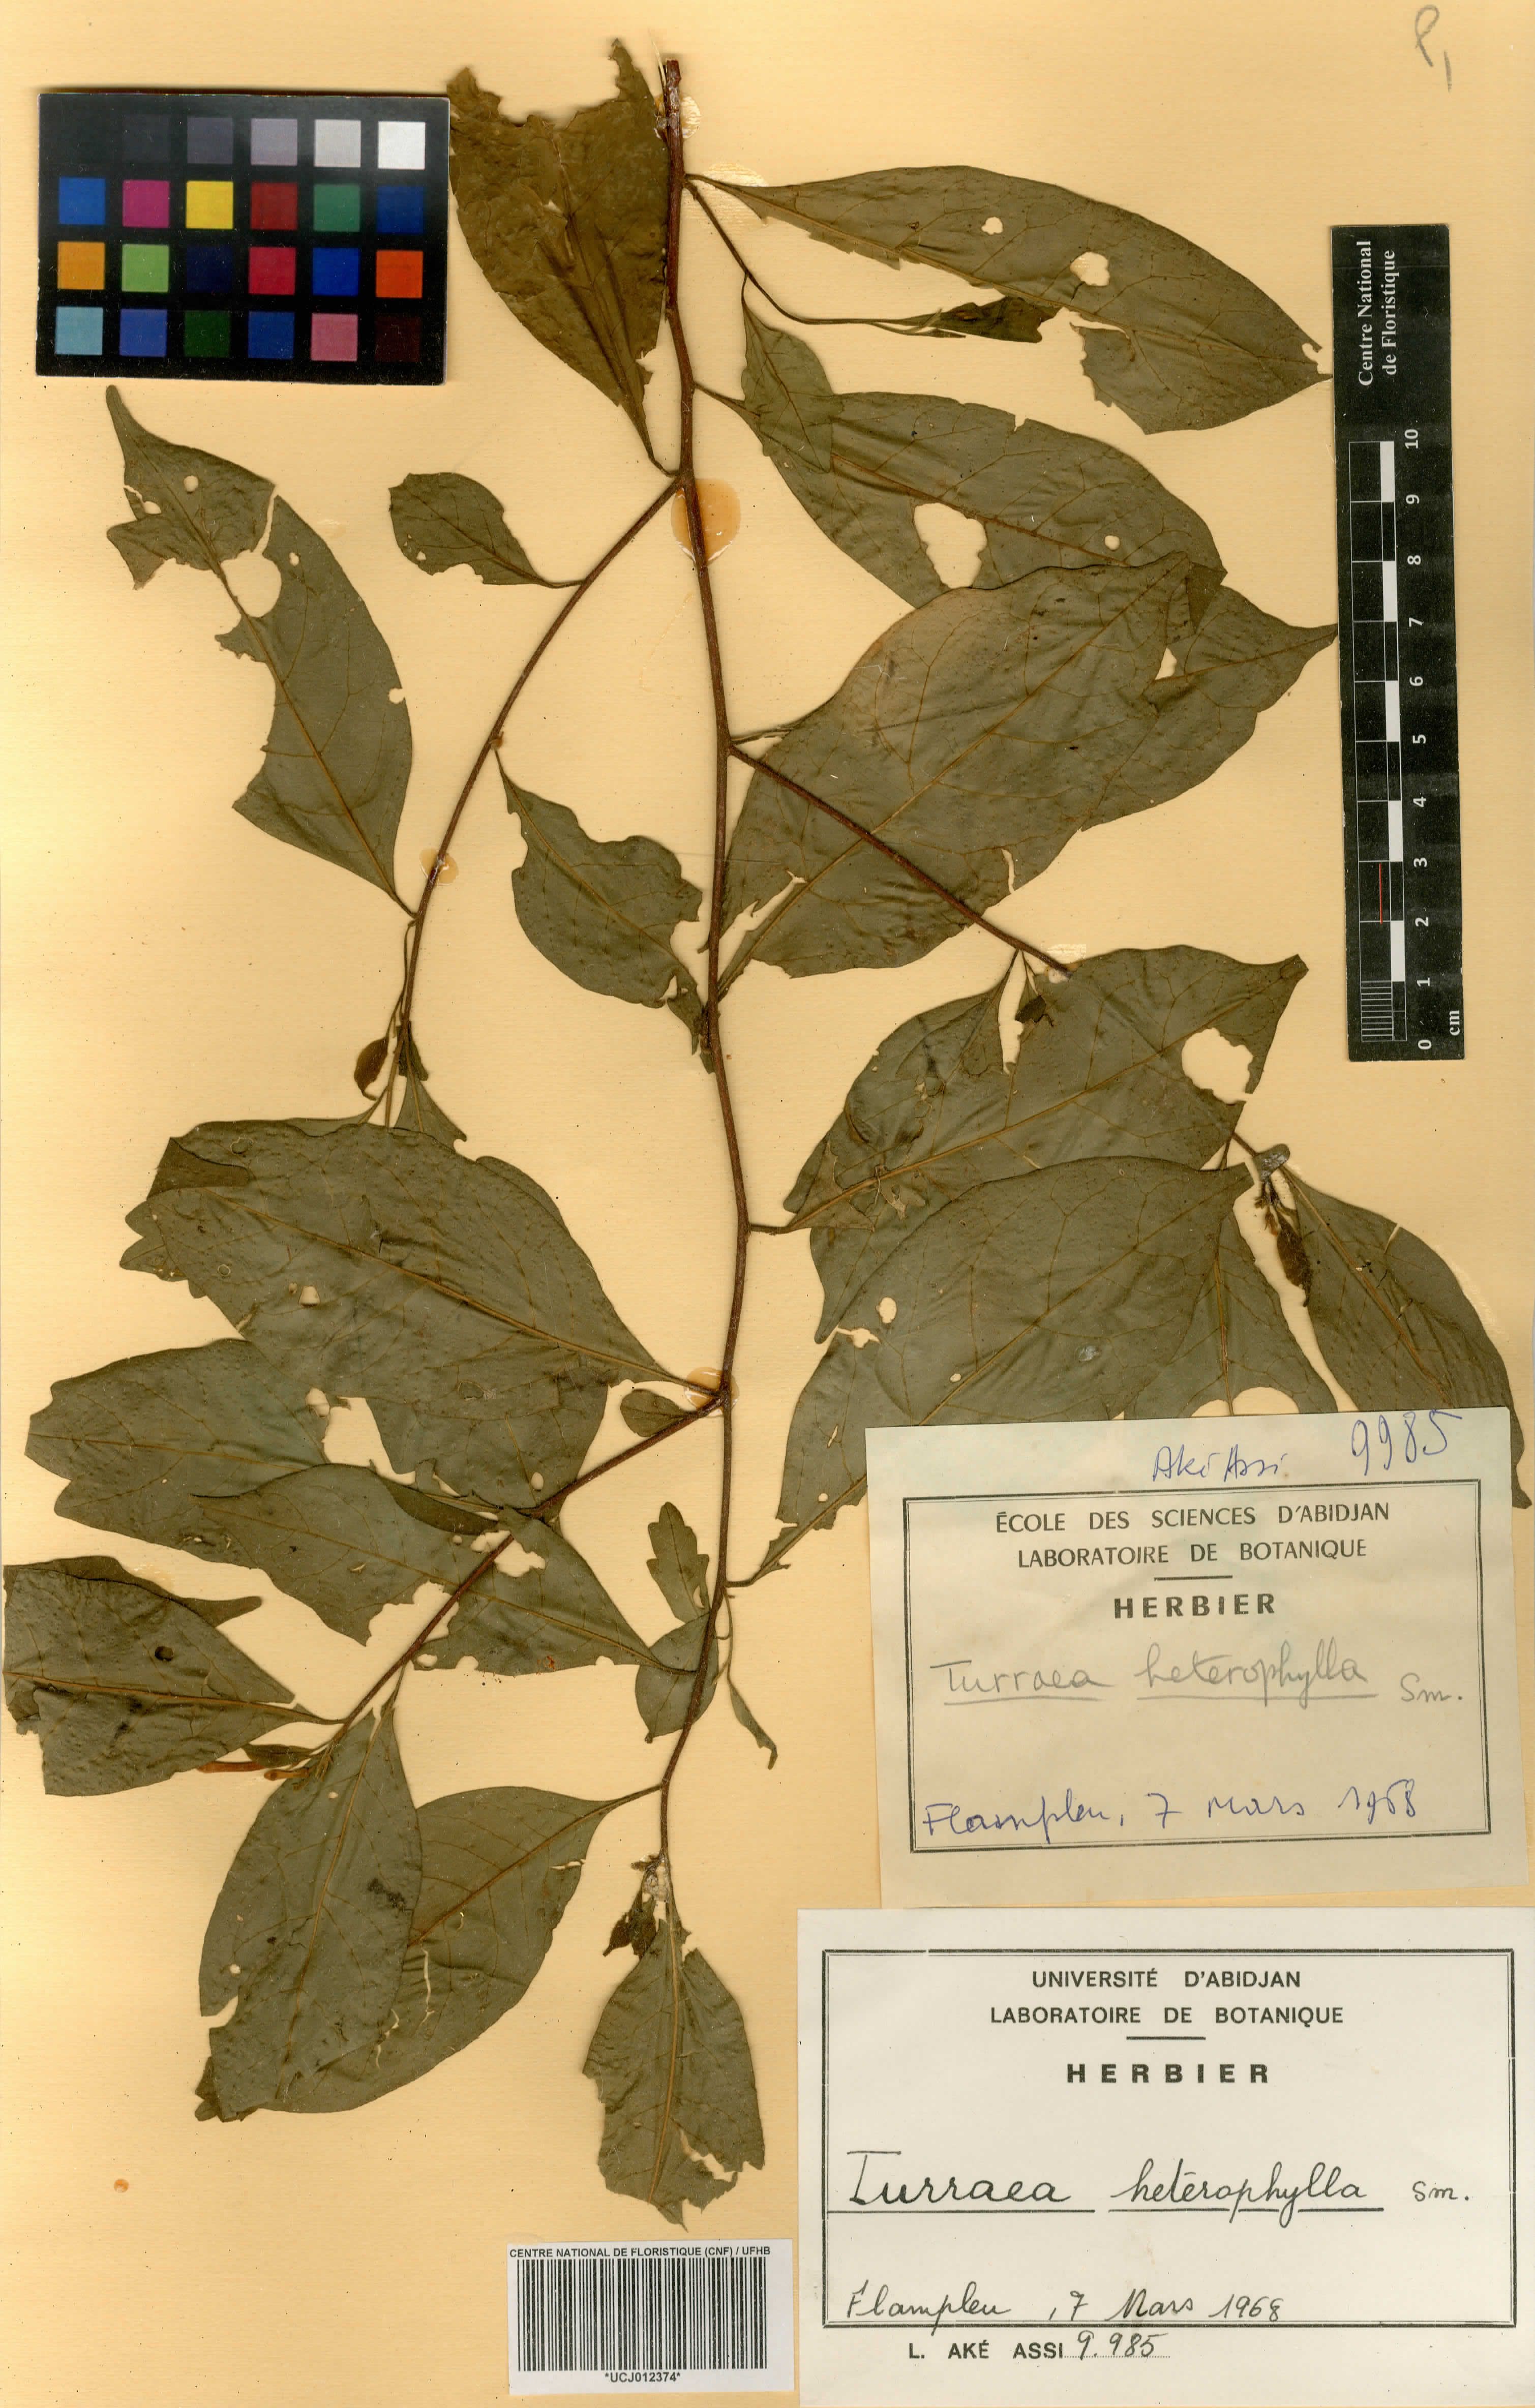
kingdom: Plantae
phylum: Tracheophyta
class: Magnoliopsida
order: Sapindales
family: Meliaceae
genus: Turraea
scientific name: Turraea heterophylla
